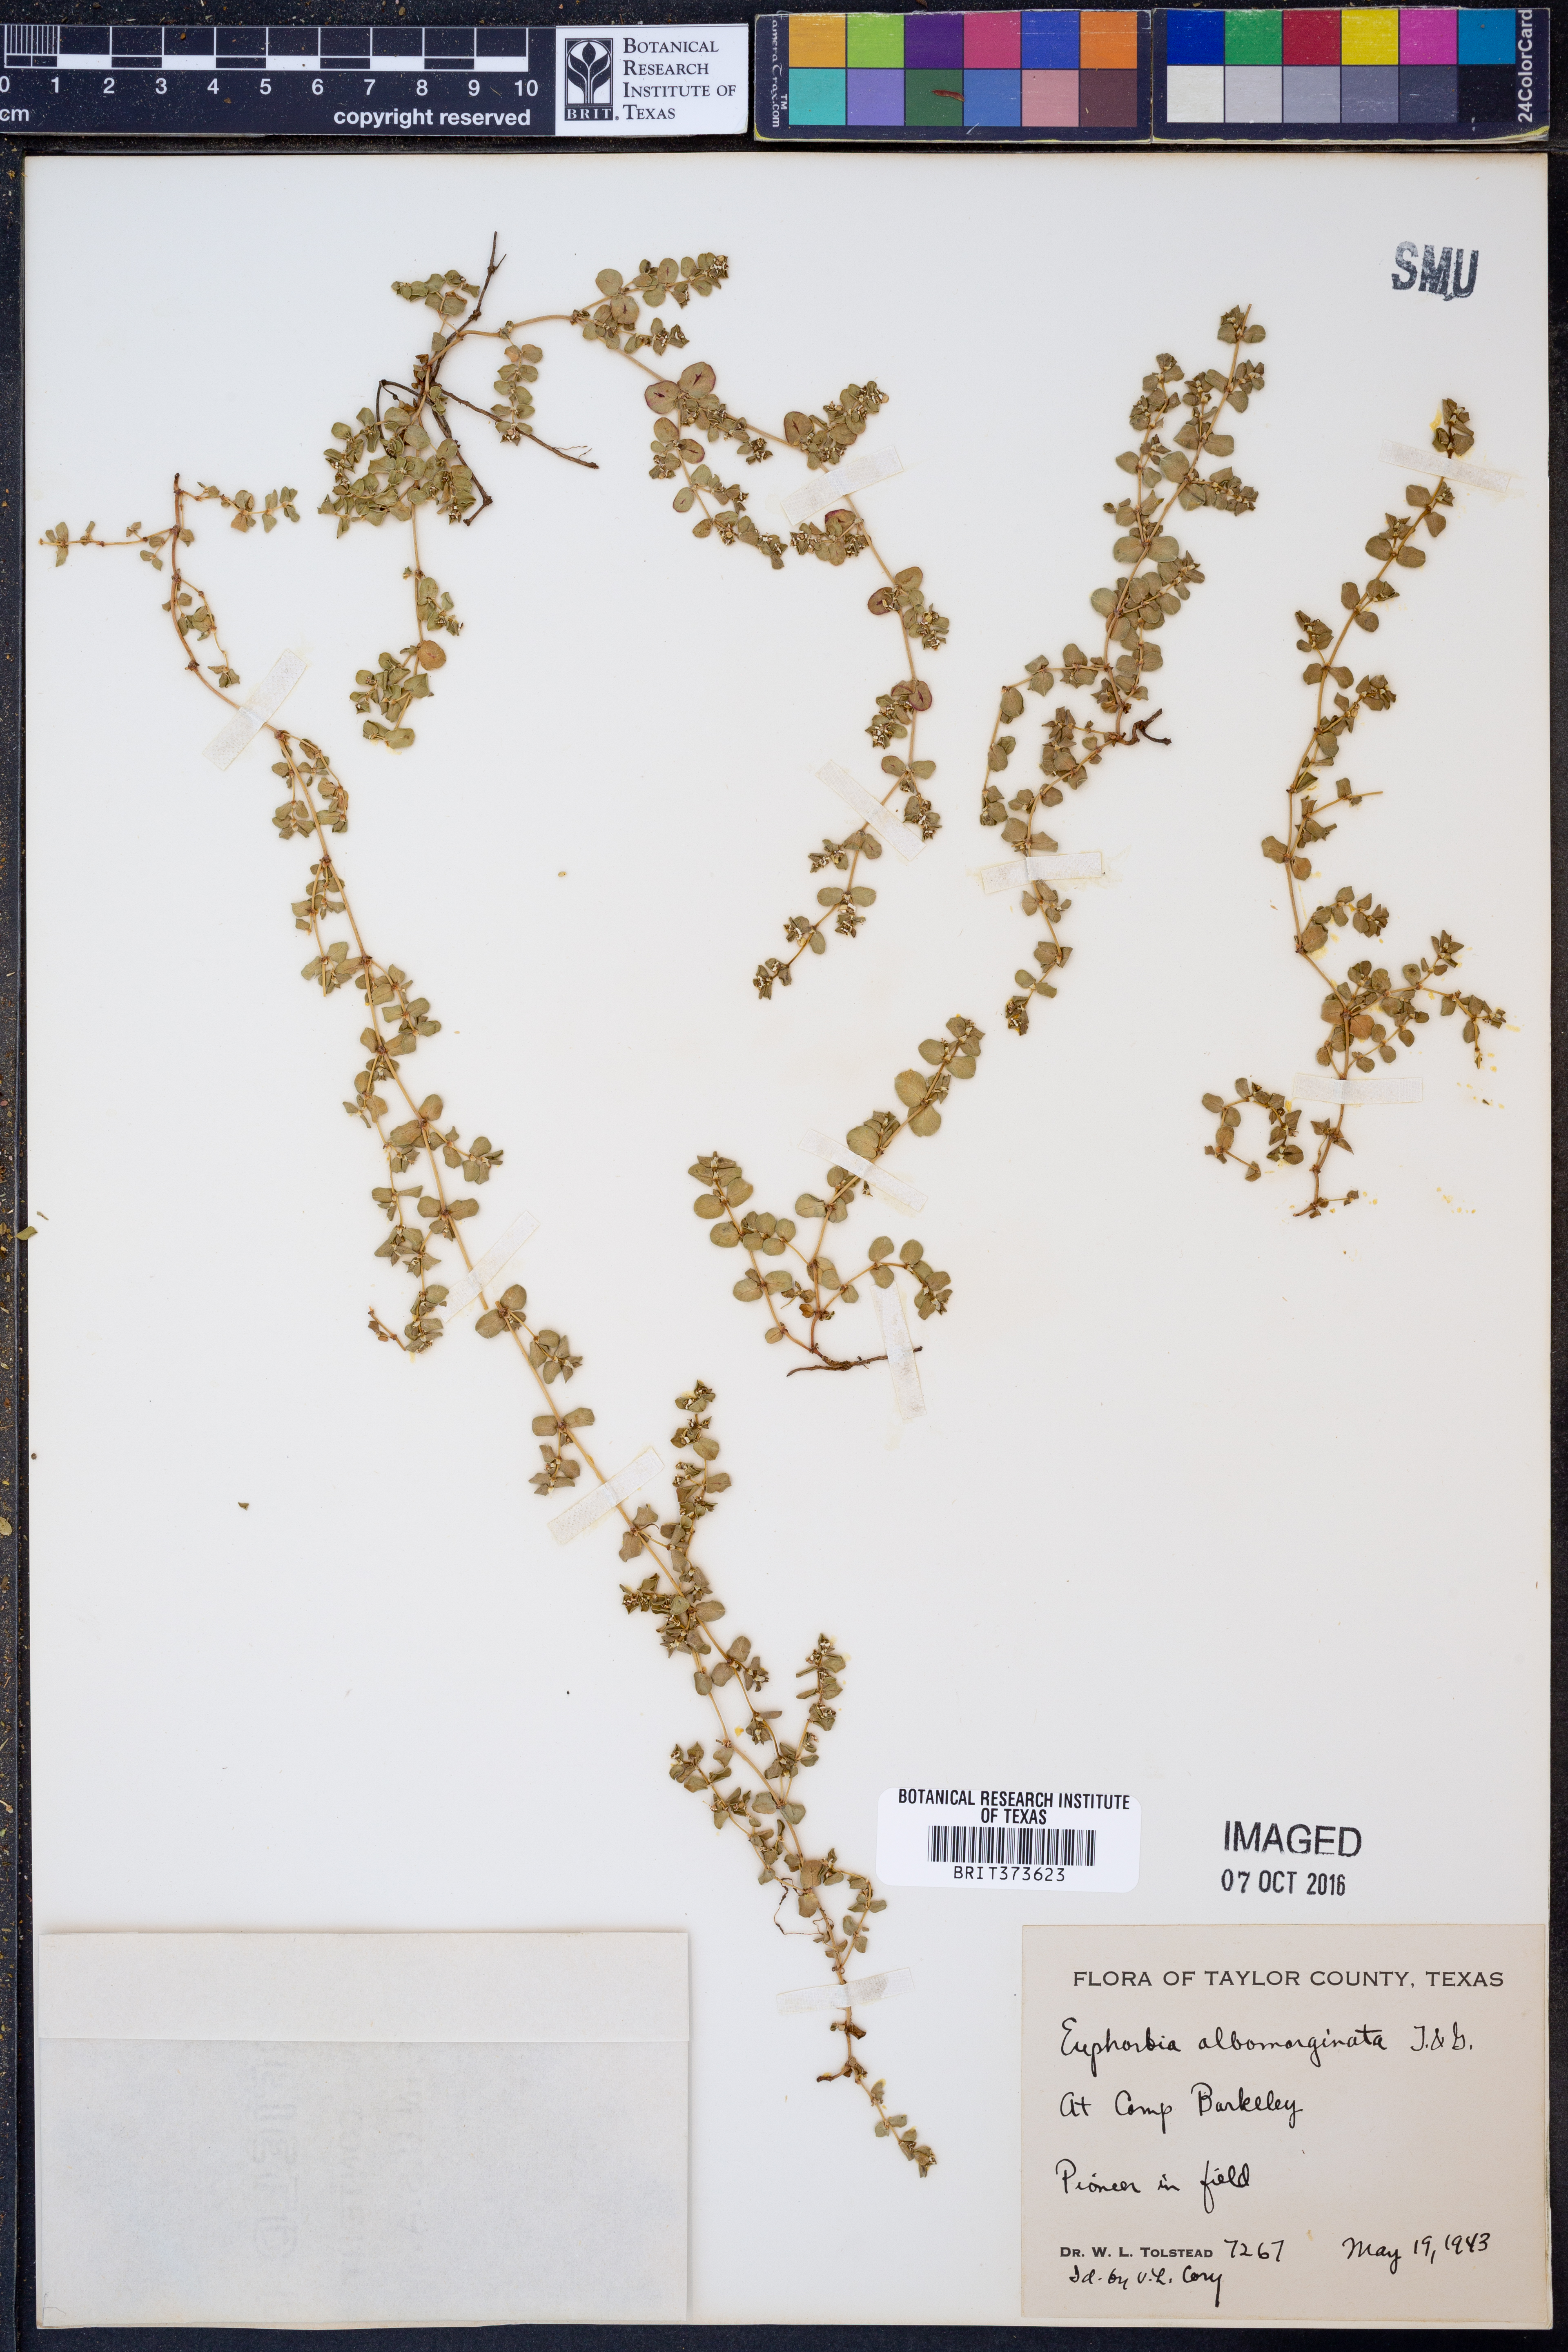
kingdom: Plantae
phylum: Tracheophyta
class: Magnoliopsida
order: Malpighiales
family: Euphorbiaceae
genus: Euphorbia
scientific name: Euphorbia albomarginata
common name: Whitemargin sandmat
